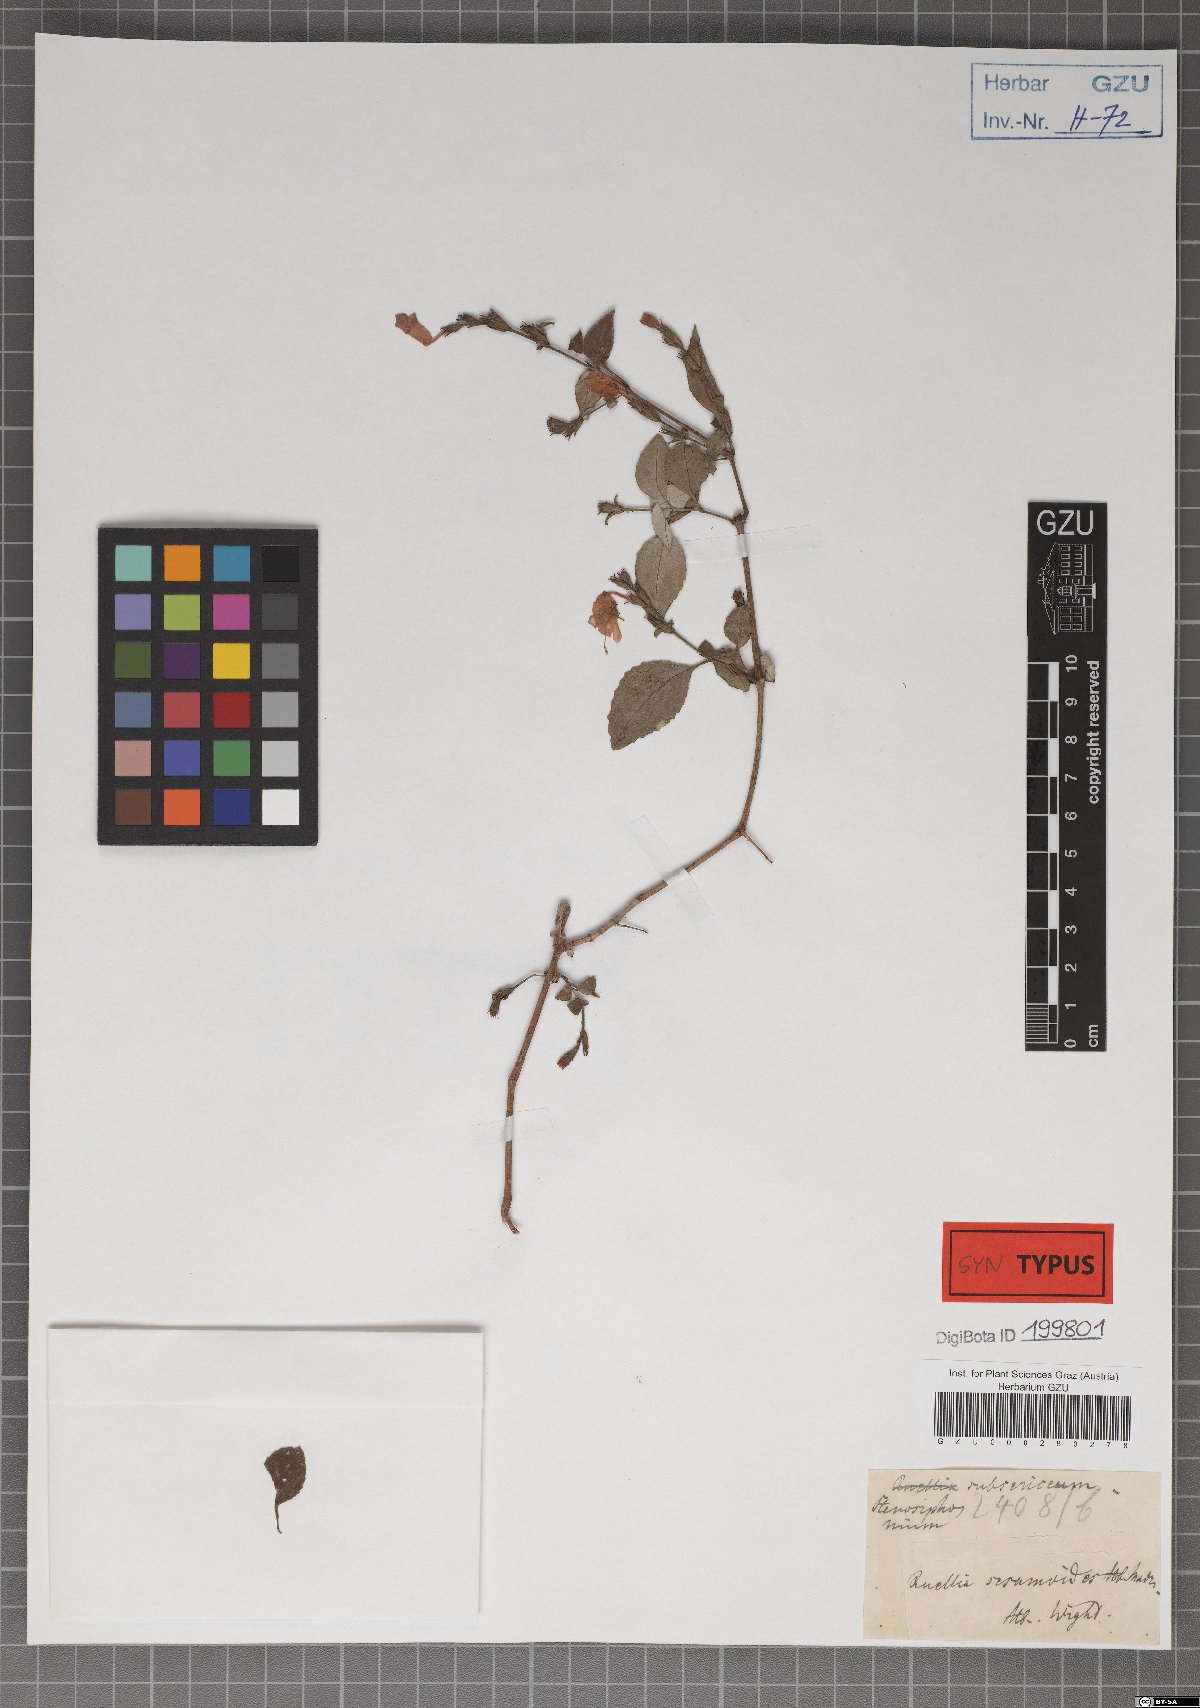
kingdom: Plantae
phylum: Tracheophyta
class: Magnoliopsida
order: Lamiales
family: Acanthaceae
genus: Strobilanthes
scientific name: Strobilanthes cordifolia
